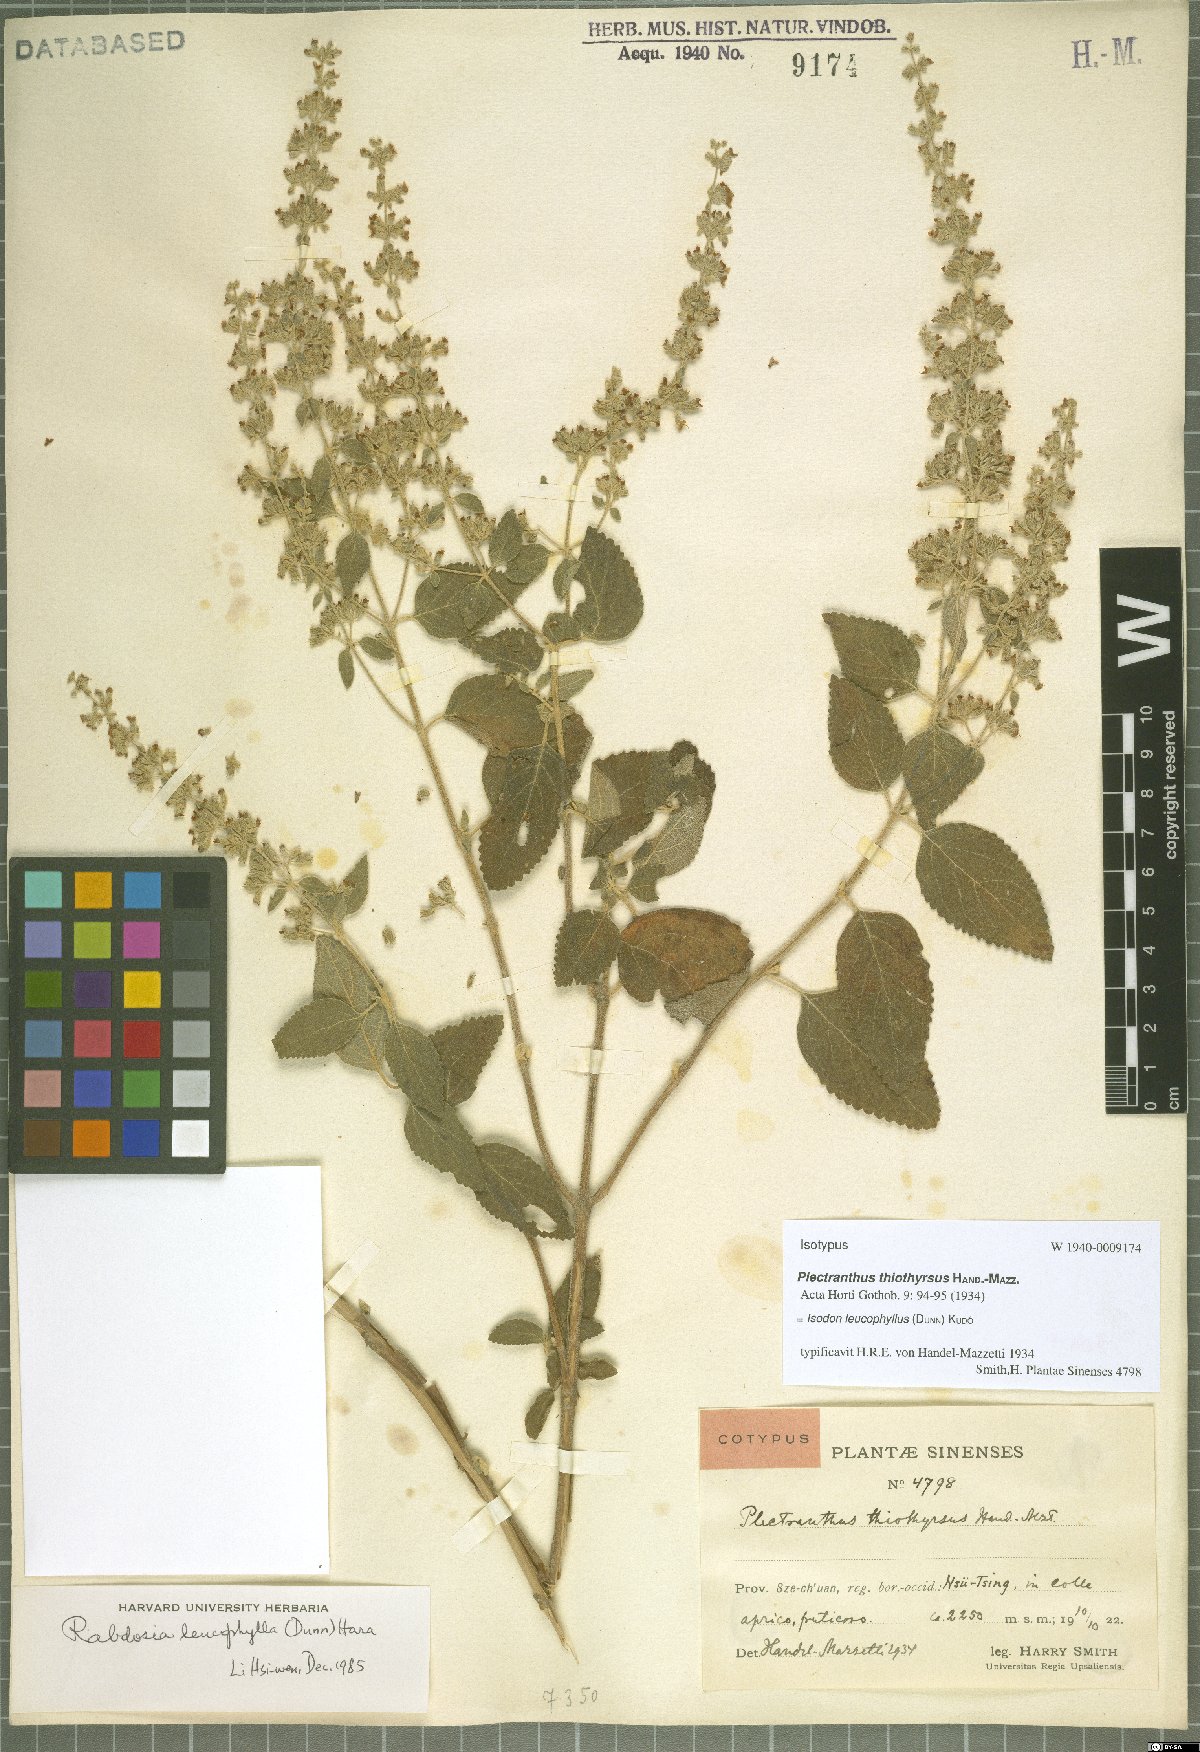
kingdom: Plantae
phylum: Tracheophyta
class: Magnoliopsida
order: Lamiales
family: Lamiaceae
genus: Isodon
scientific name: Isodon leucophyllus
